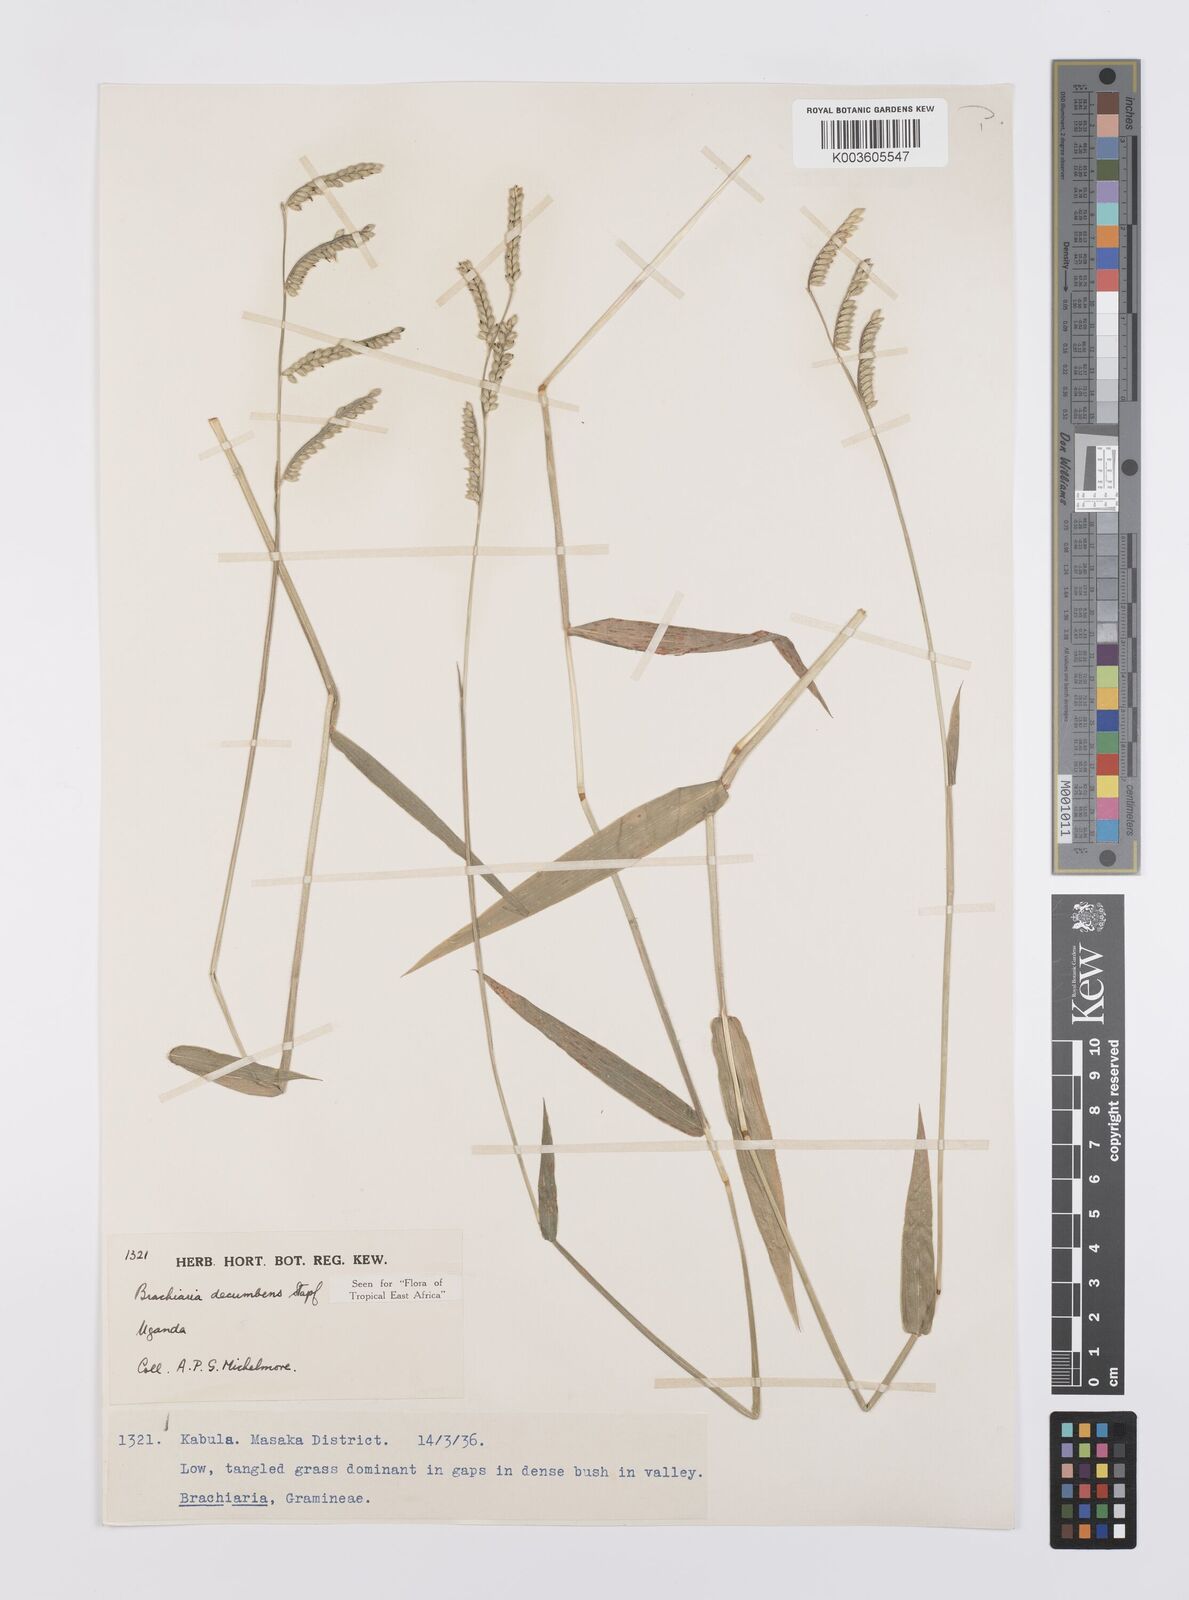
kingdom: Plantae
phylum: Tracheophyta
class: Liliopsida
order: Poales
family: Poaceae
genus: Urochloa
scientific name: Urochloa eminii
